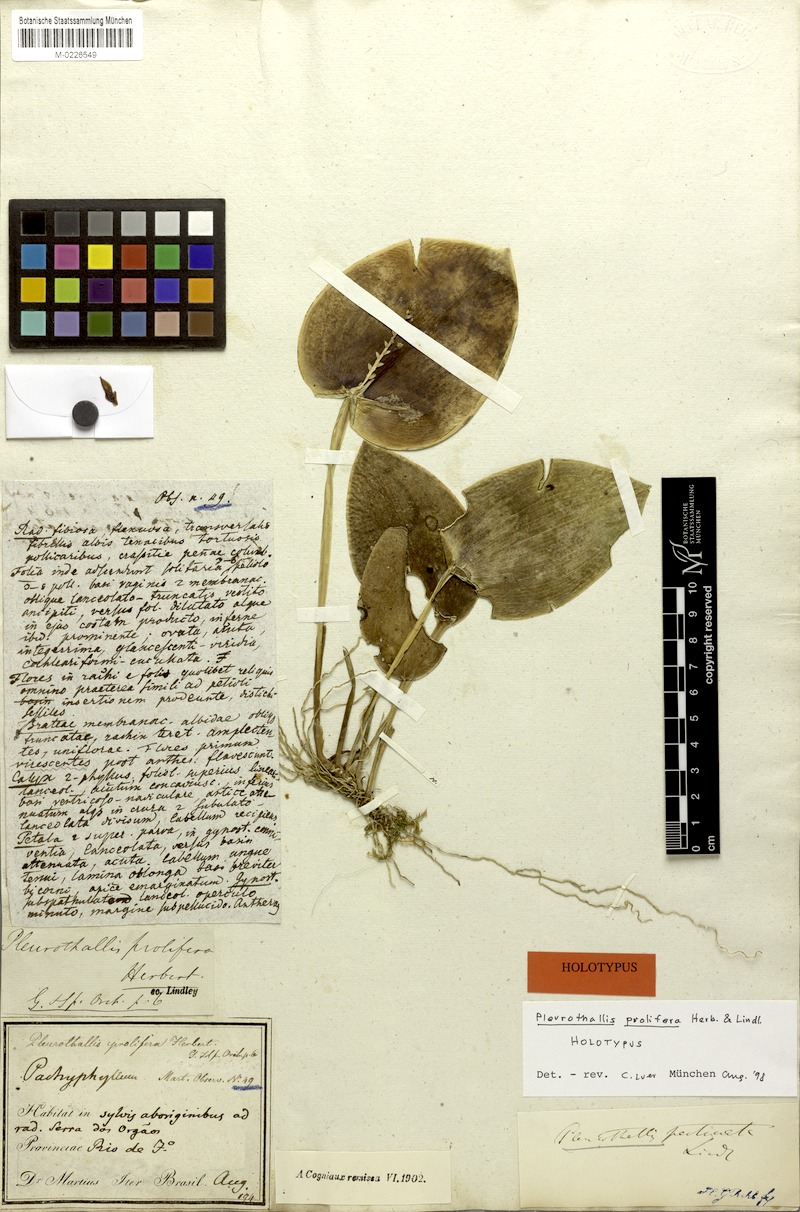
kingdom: Plantae
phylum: Tracheophyta
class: Liliopsida
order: Asparagales
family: Orchidaceae
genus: Acianthera
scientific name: Acianthera prolifera
